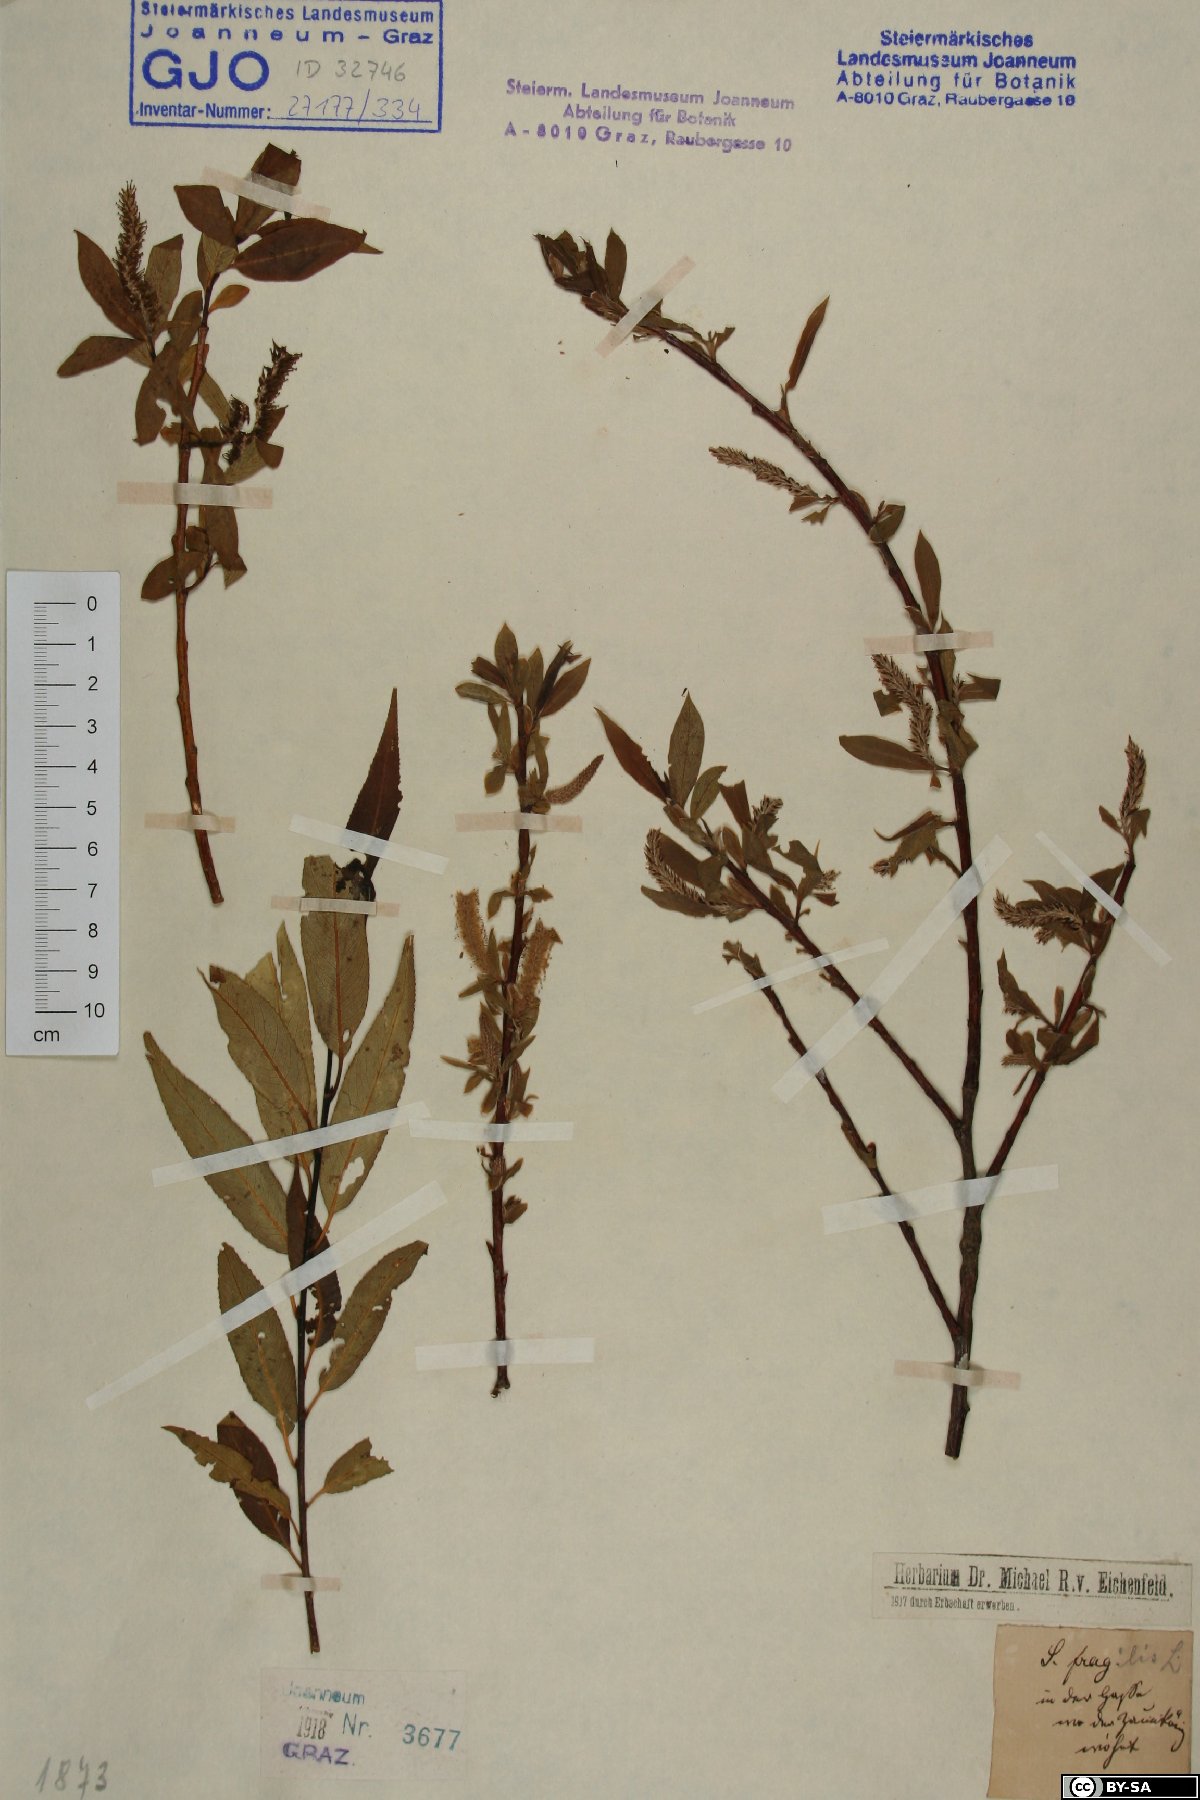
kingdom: Plantae
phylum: Tracheophyta
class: Magnoliopsida
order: Malpighiales
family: Salicaceae
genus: Salix
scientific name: Salix fragilis
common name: Crack willow
